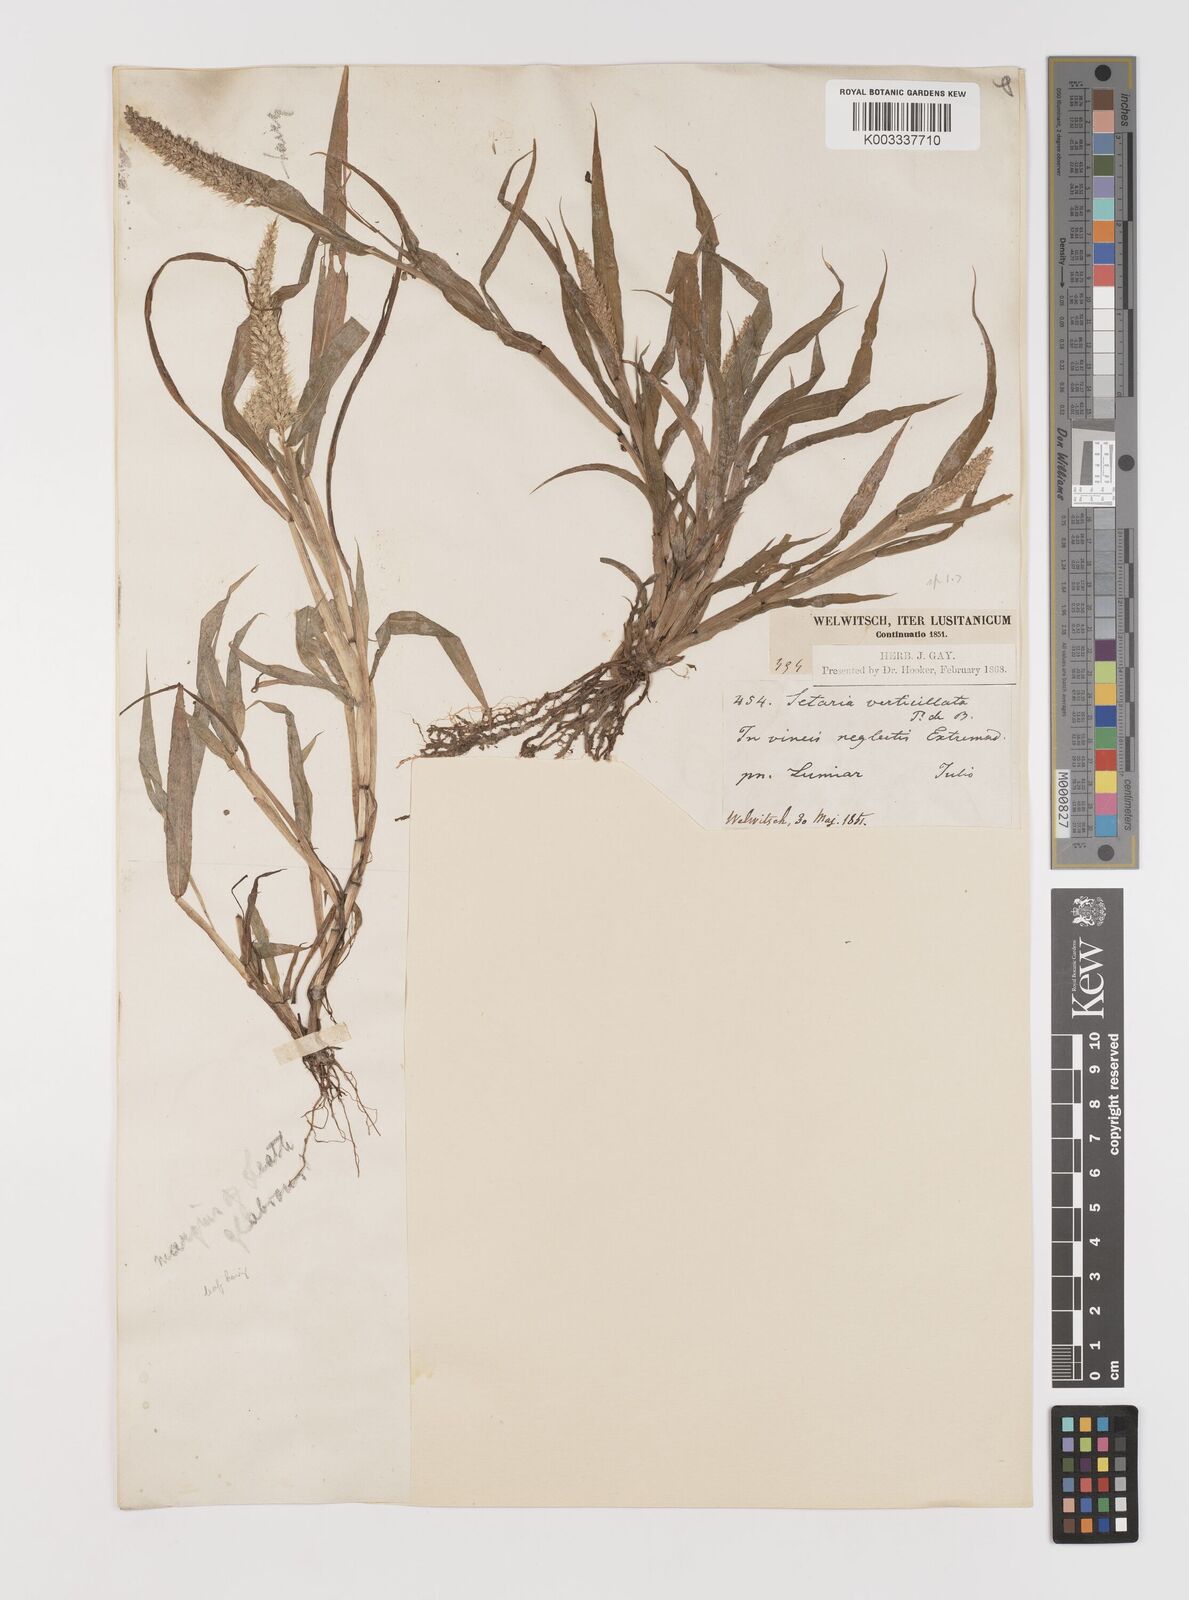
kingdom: Plantae
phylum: Tracheophyta
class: Liliopsida
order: Poales
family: Poaceae
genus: Setaria
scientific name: Setaria verticillata
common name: Hooked bristlegrass
